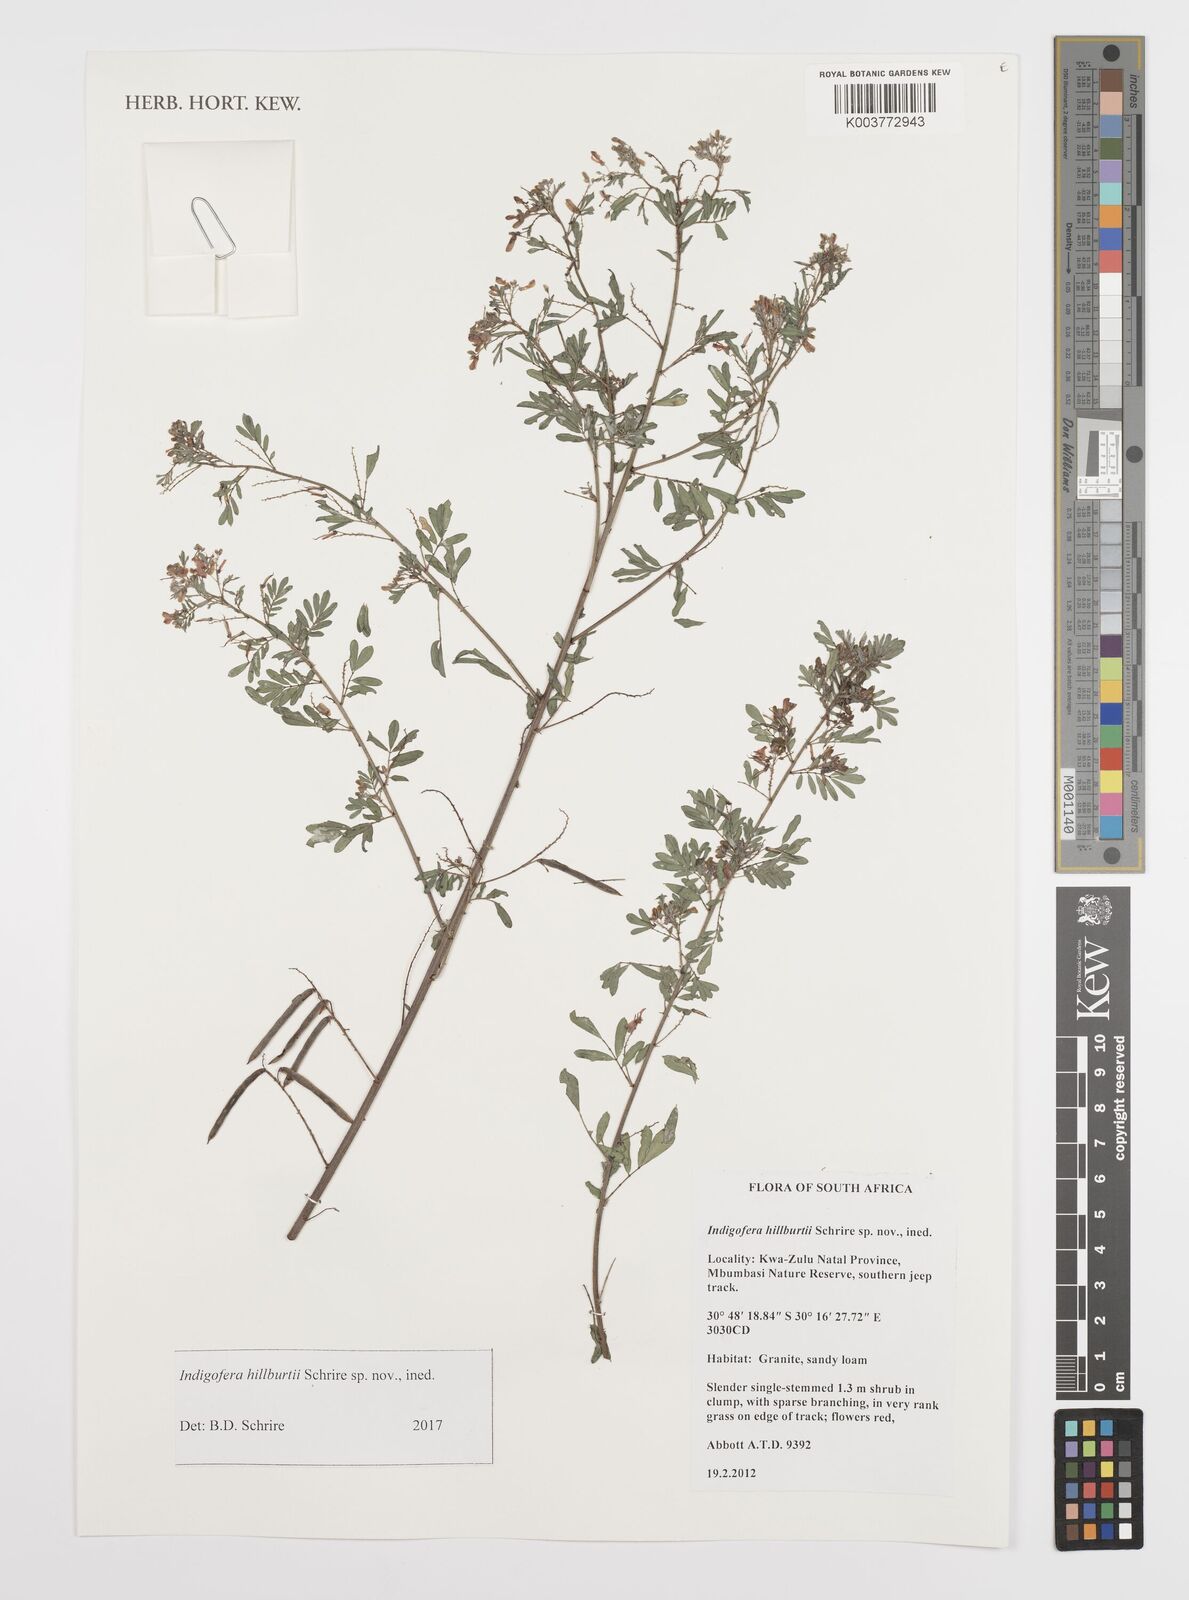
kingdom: Plantae
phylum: Tracheophyta
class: Magnoliopsida
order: Fabales
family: Fabaceae
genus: Indigofera
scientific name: Indigofera
